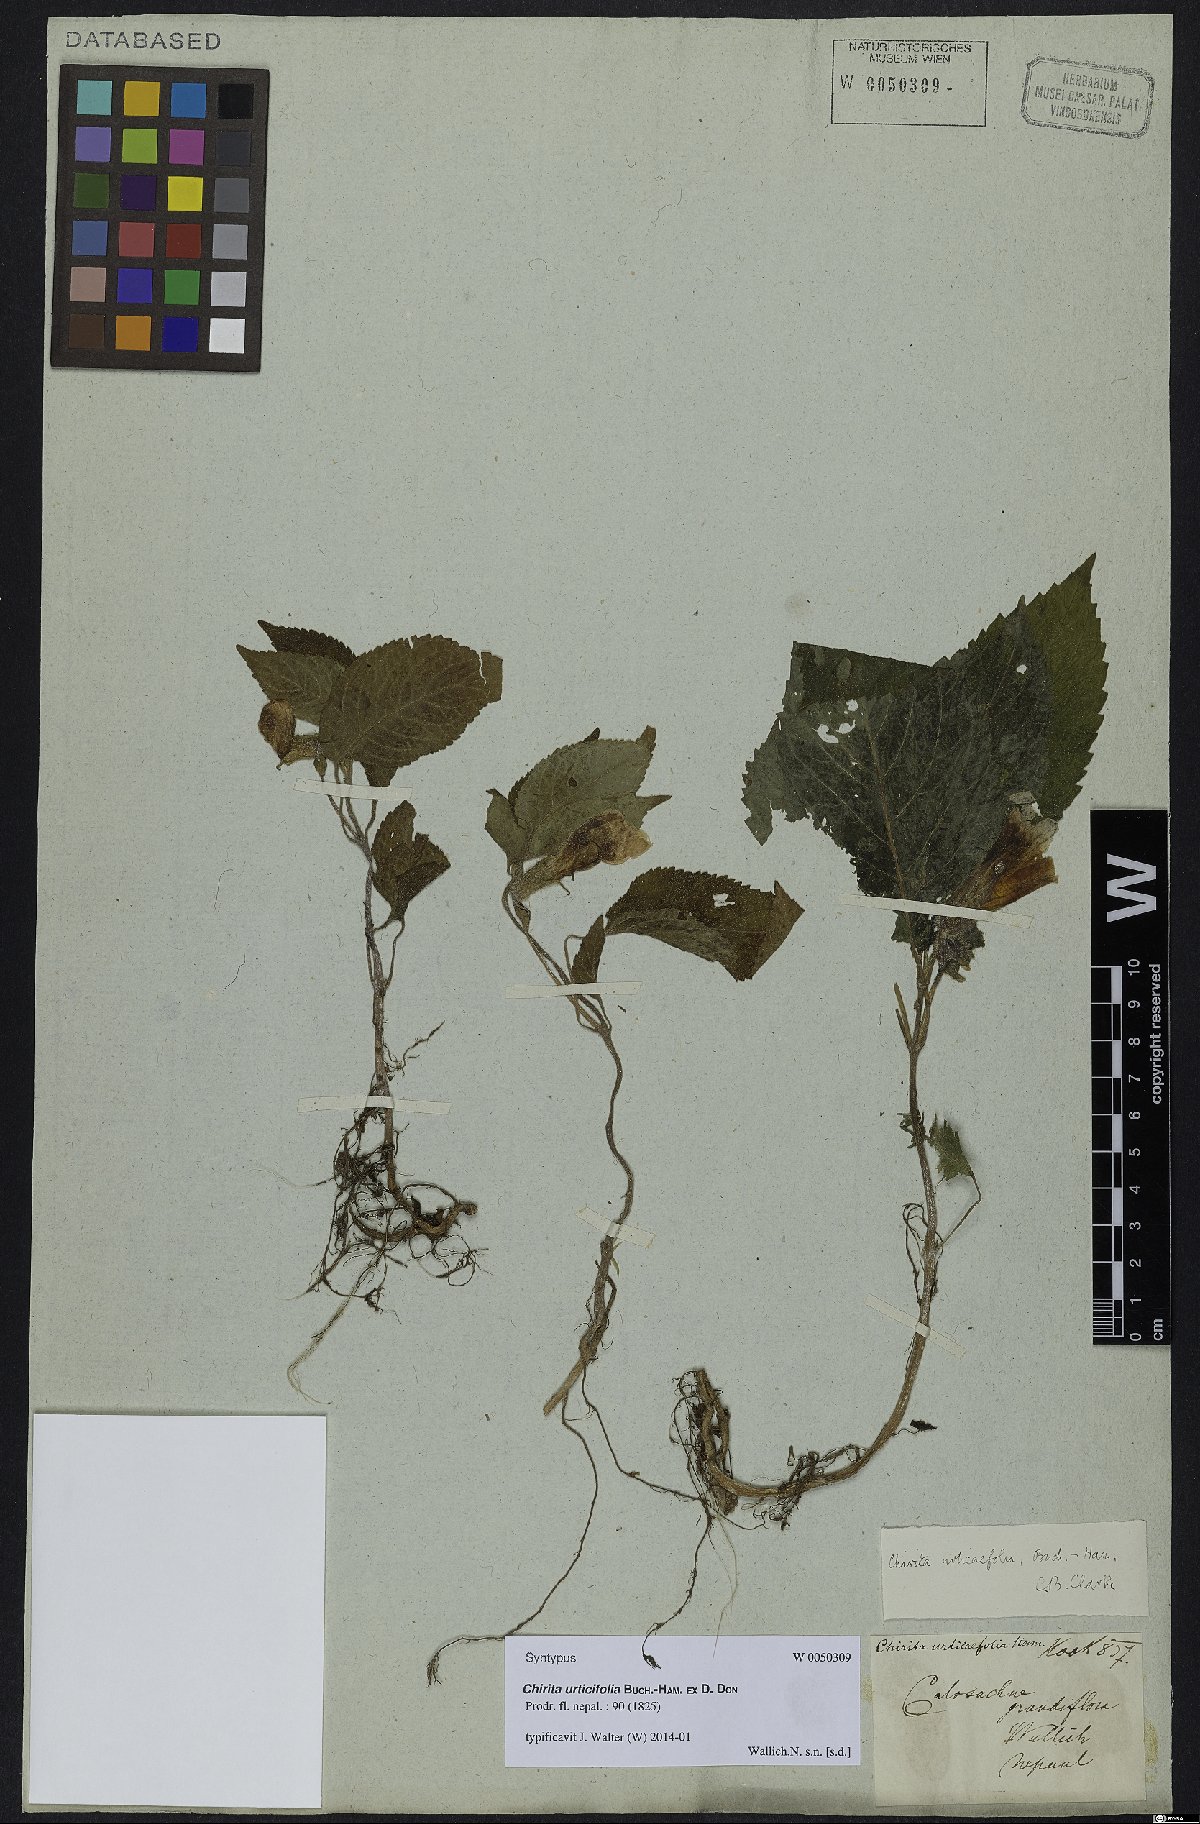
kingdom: Plantae
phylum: Tracheophyta
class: Magnoliopsida
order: Lamiales
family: Gesneriaceae
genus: Henckelia
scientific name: Henckelia urticifolia
